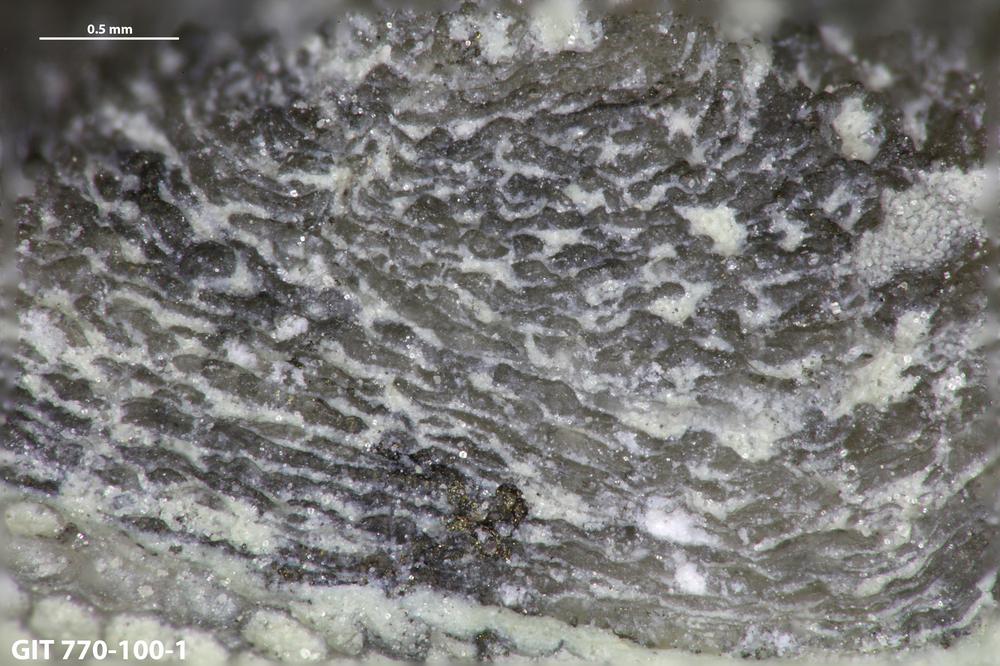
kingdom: Animalia
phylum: Brachiopoda
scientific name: Brachiopoda
